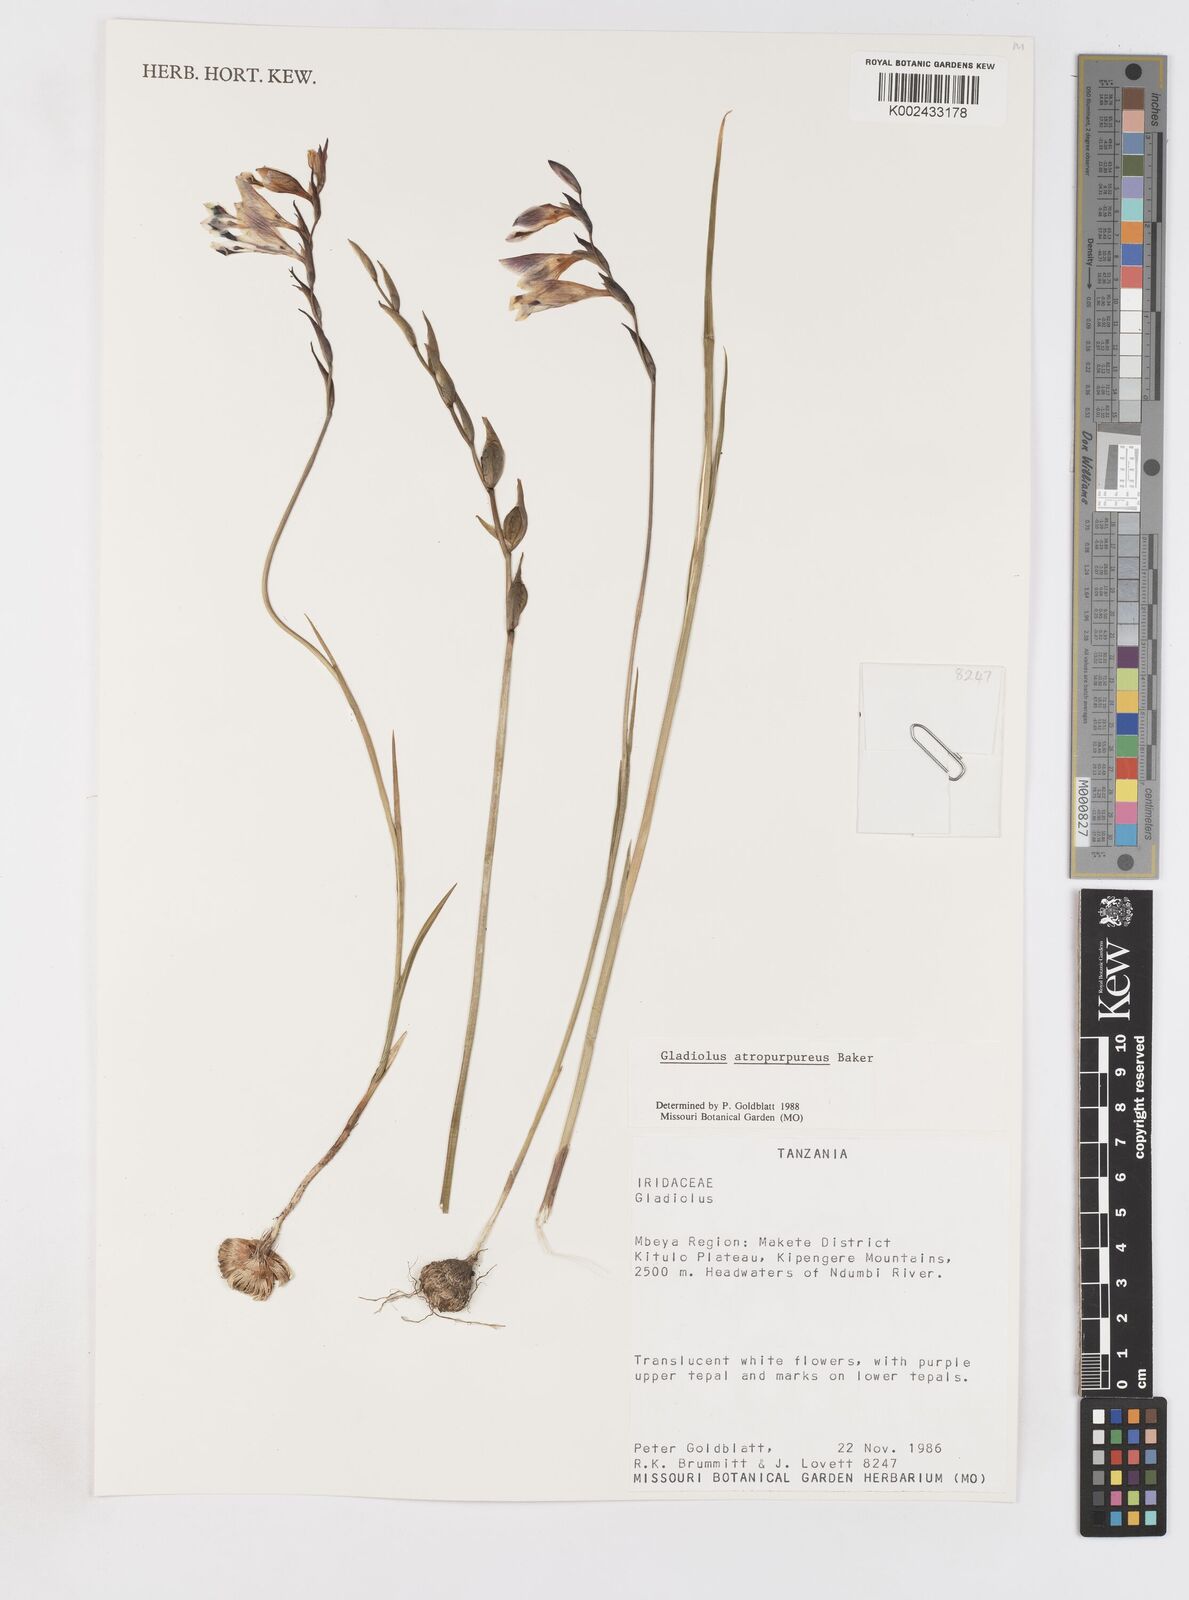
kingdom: Plantae
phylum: Tracheophyta
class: Liliopsida
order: Asparagales
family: Iridaceae
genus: Gladiolus
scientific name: Gladiolus atropurpureus
